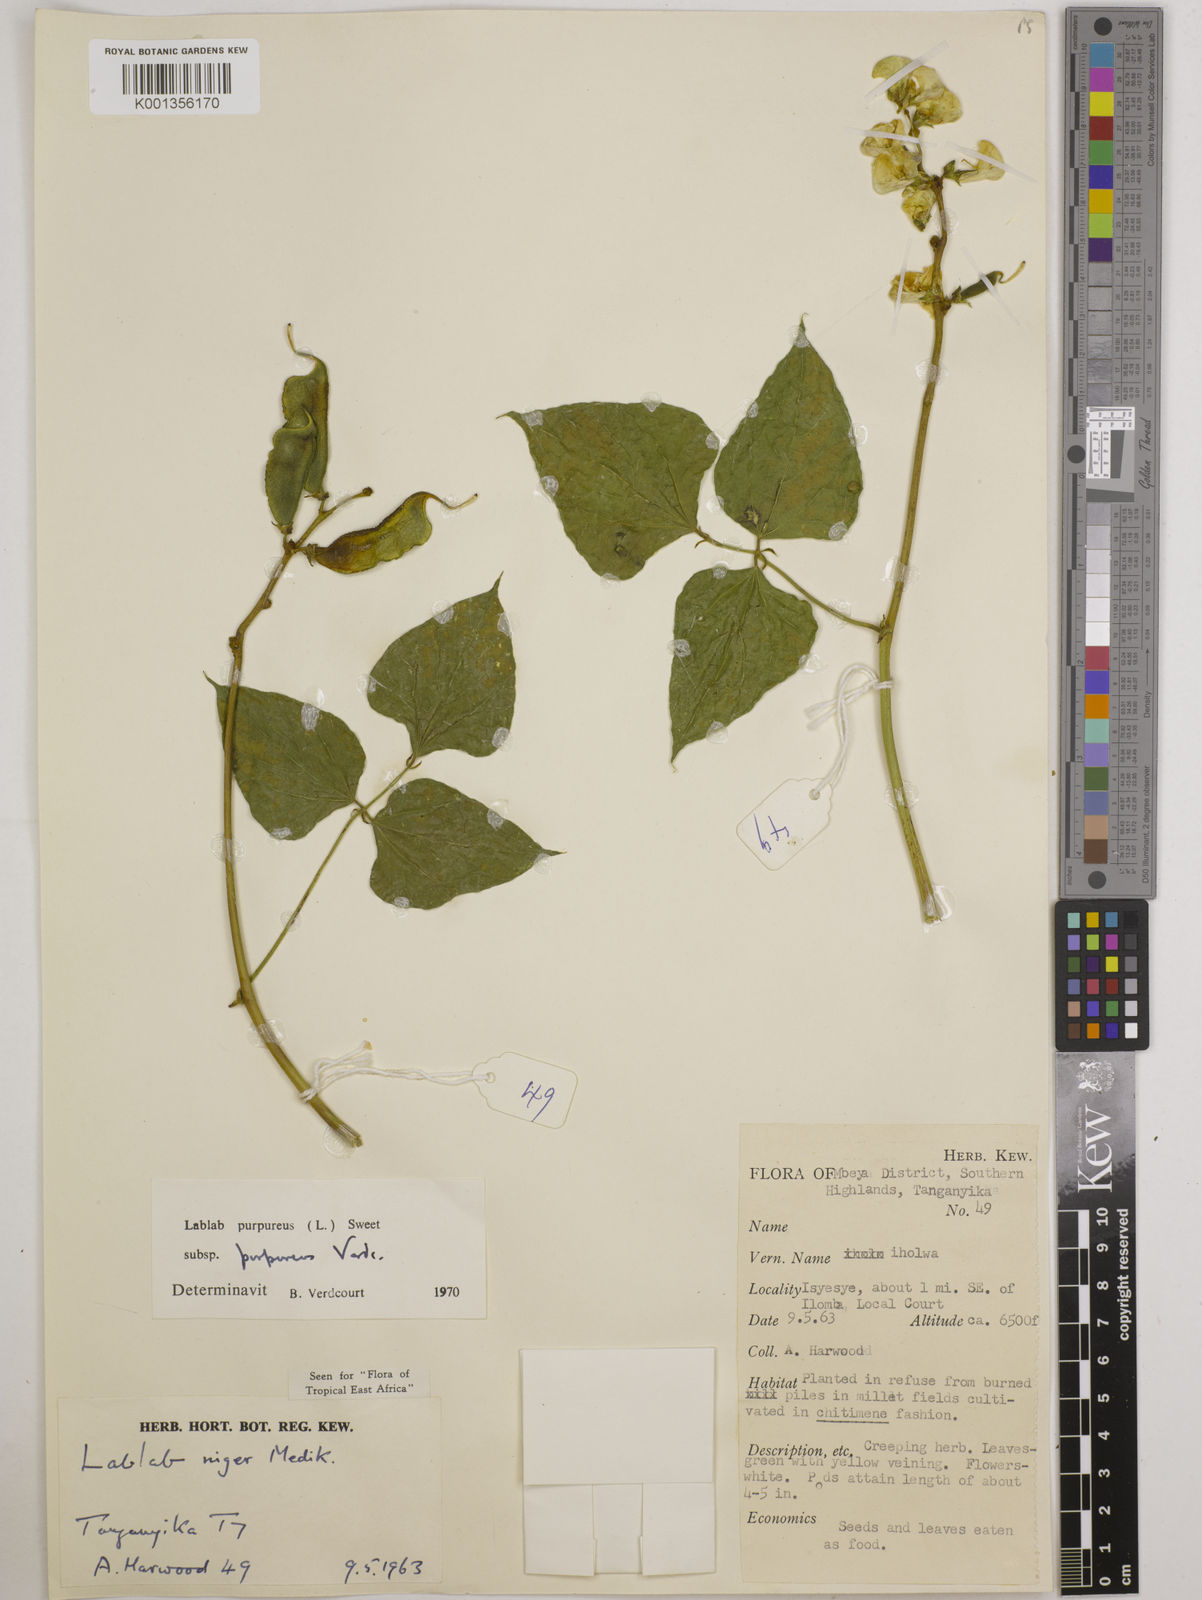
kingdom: Plantae
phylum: Tracheophyta
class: Magnoliopsida
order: Fabales
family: Fabaceae
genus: Lablab
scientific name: Lablab purpureus
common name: Lablab-bean
